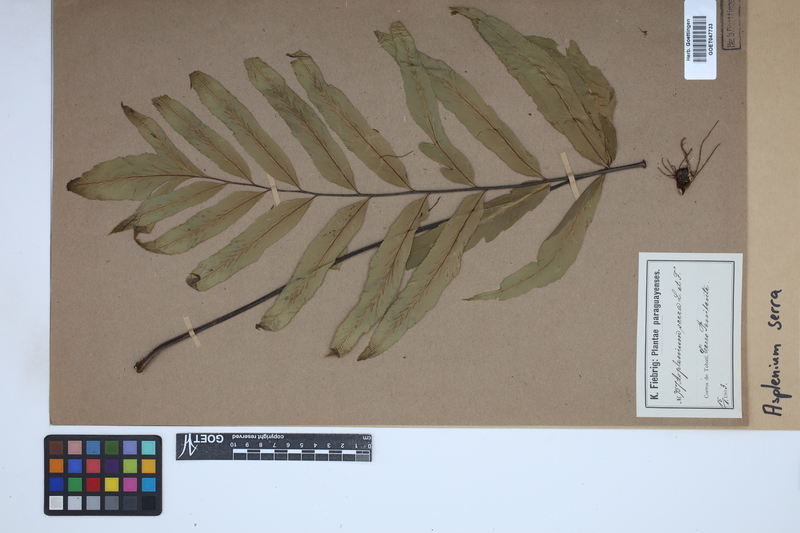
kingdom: Plantae
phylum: Tracheophyta
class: Polypodiopsida
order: Polypodiales
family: Aspleniaceae
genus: Asplenium
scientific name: Asplenium serra
